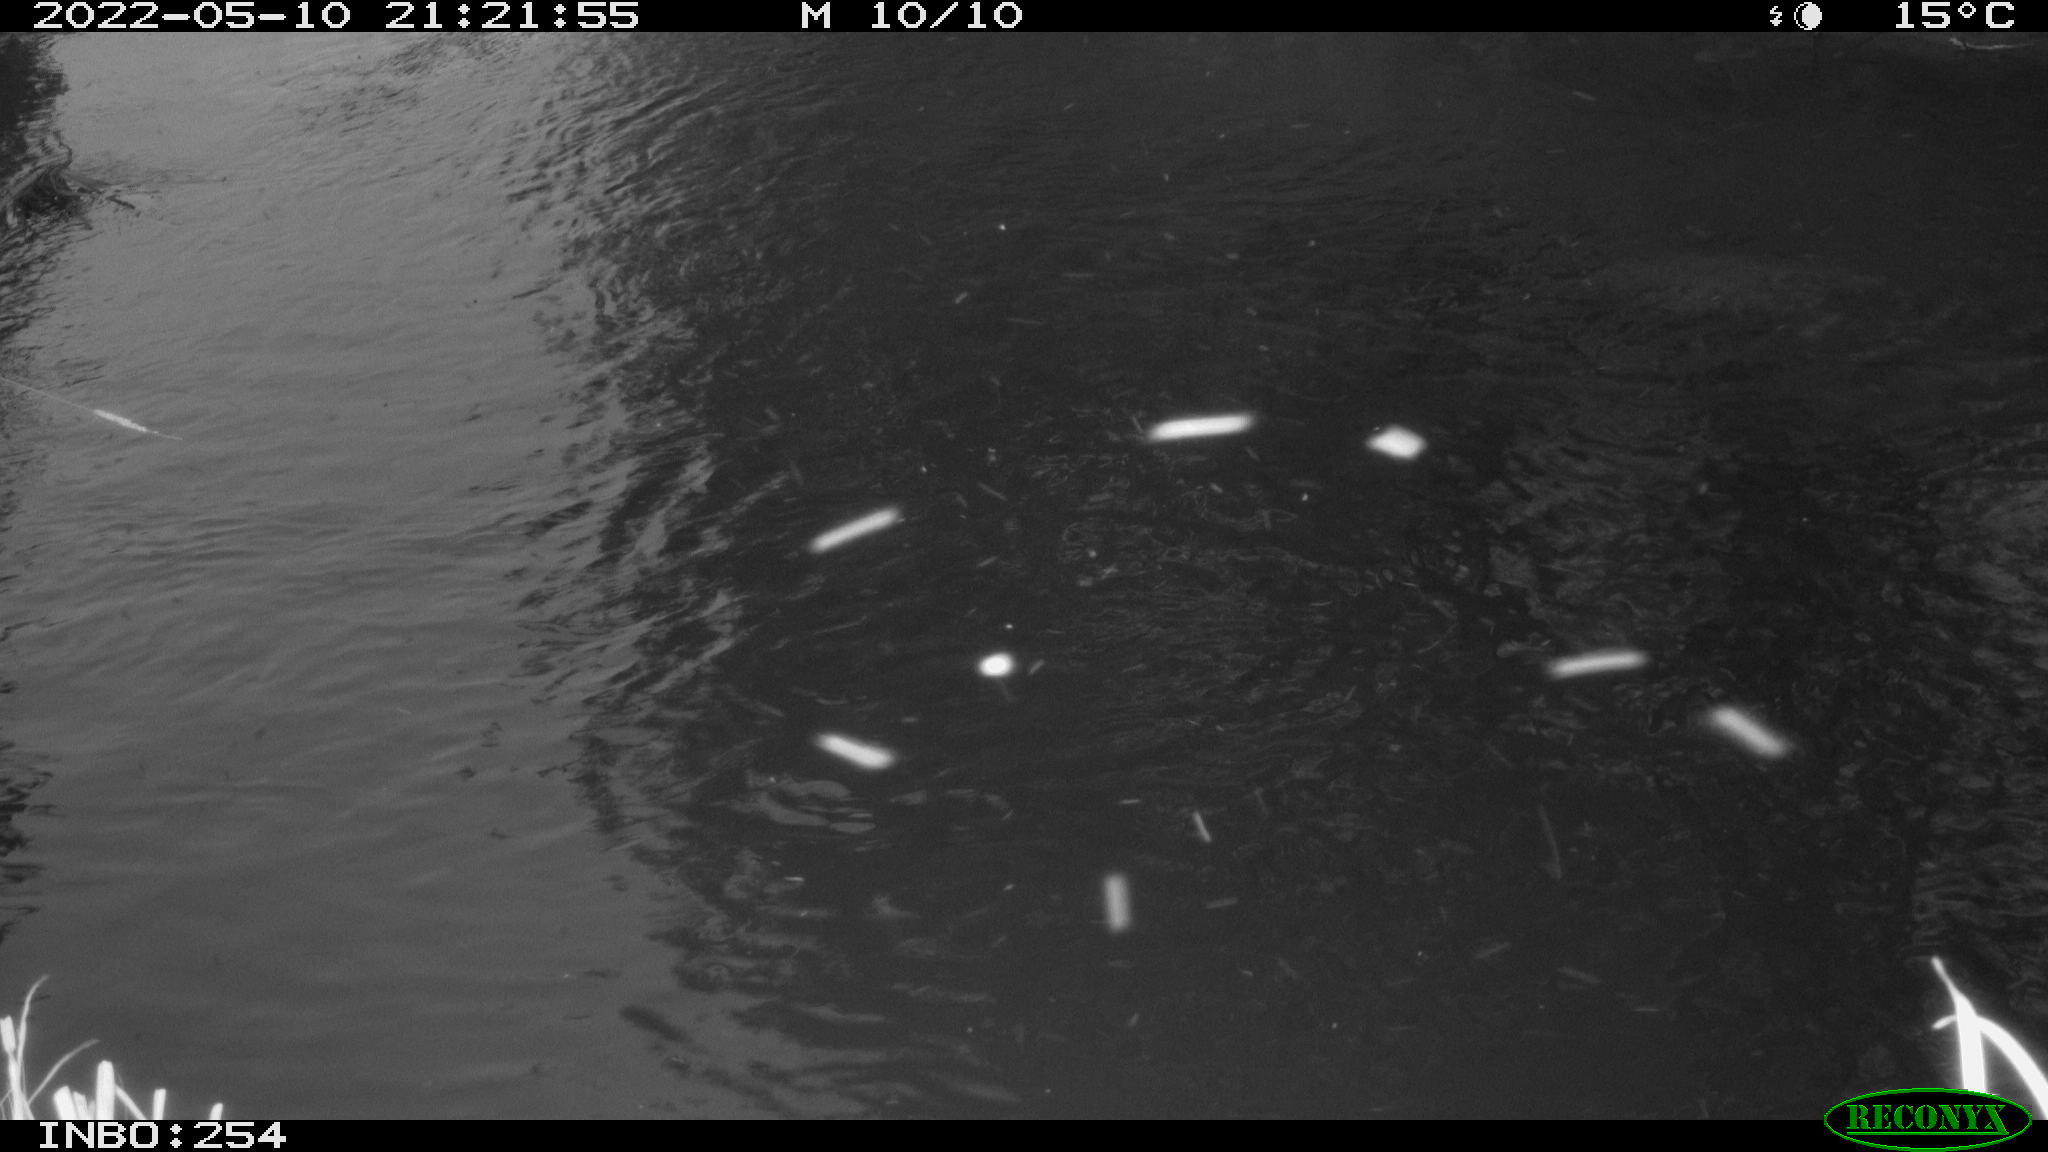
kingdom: Animalia
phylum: Chordata
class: Aves
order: Anseriformes
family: Anatidae
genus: Anas
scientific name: Anas platyrhynchos
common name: Mallard
